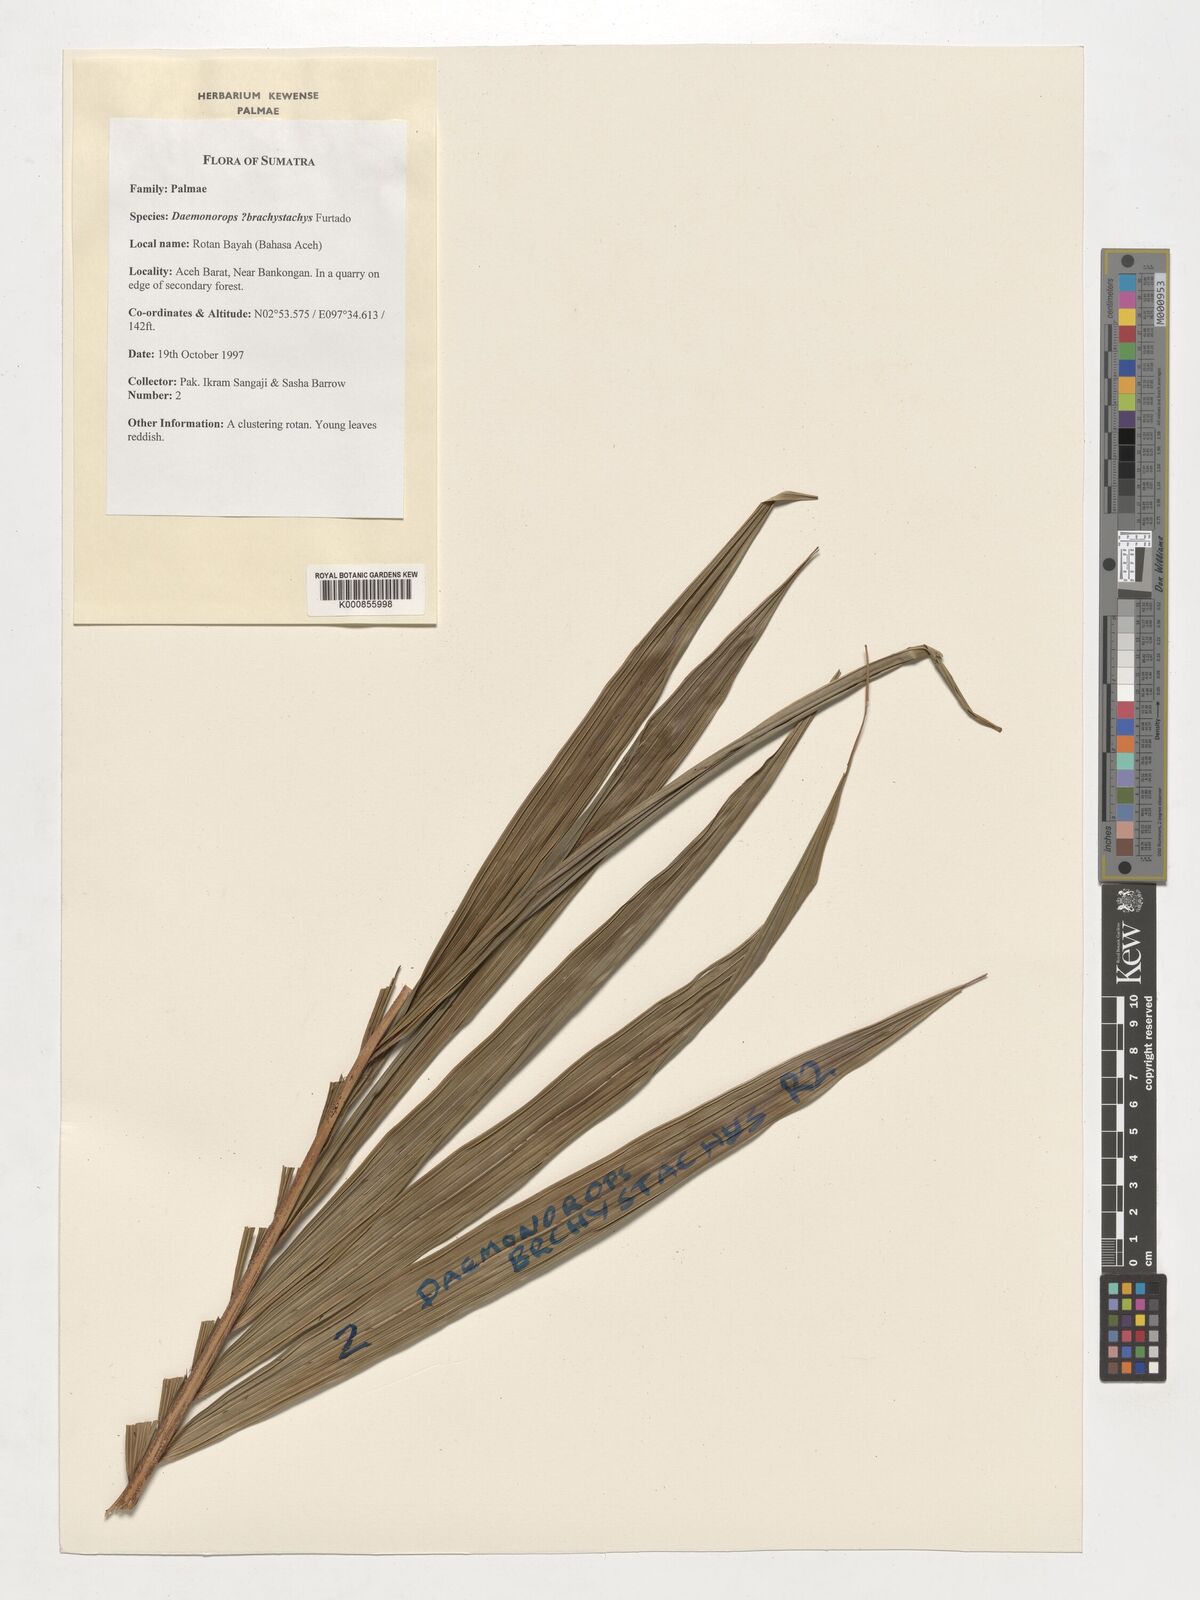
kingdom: Plantae
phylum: Tracheophyta
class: Liliopsida
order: Arecales
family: Arecaceae
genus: Daemonorops
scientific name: Daemonorops
